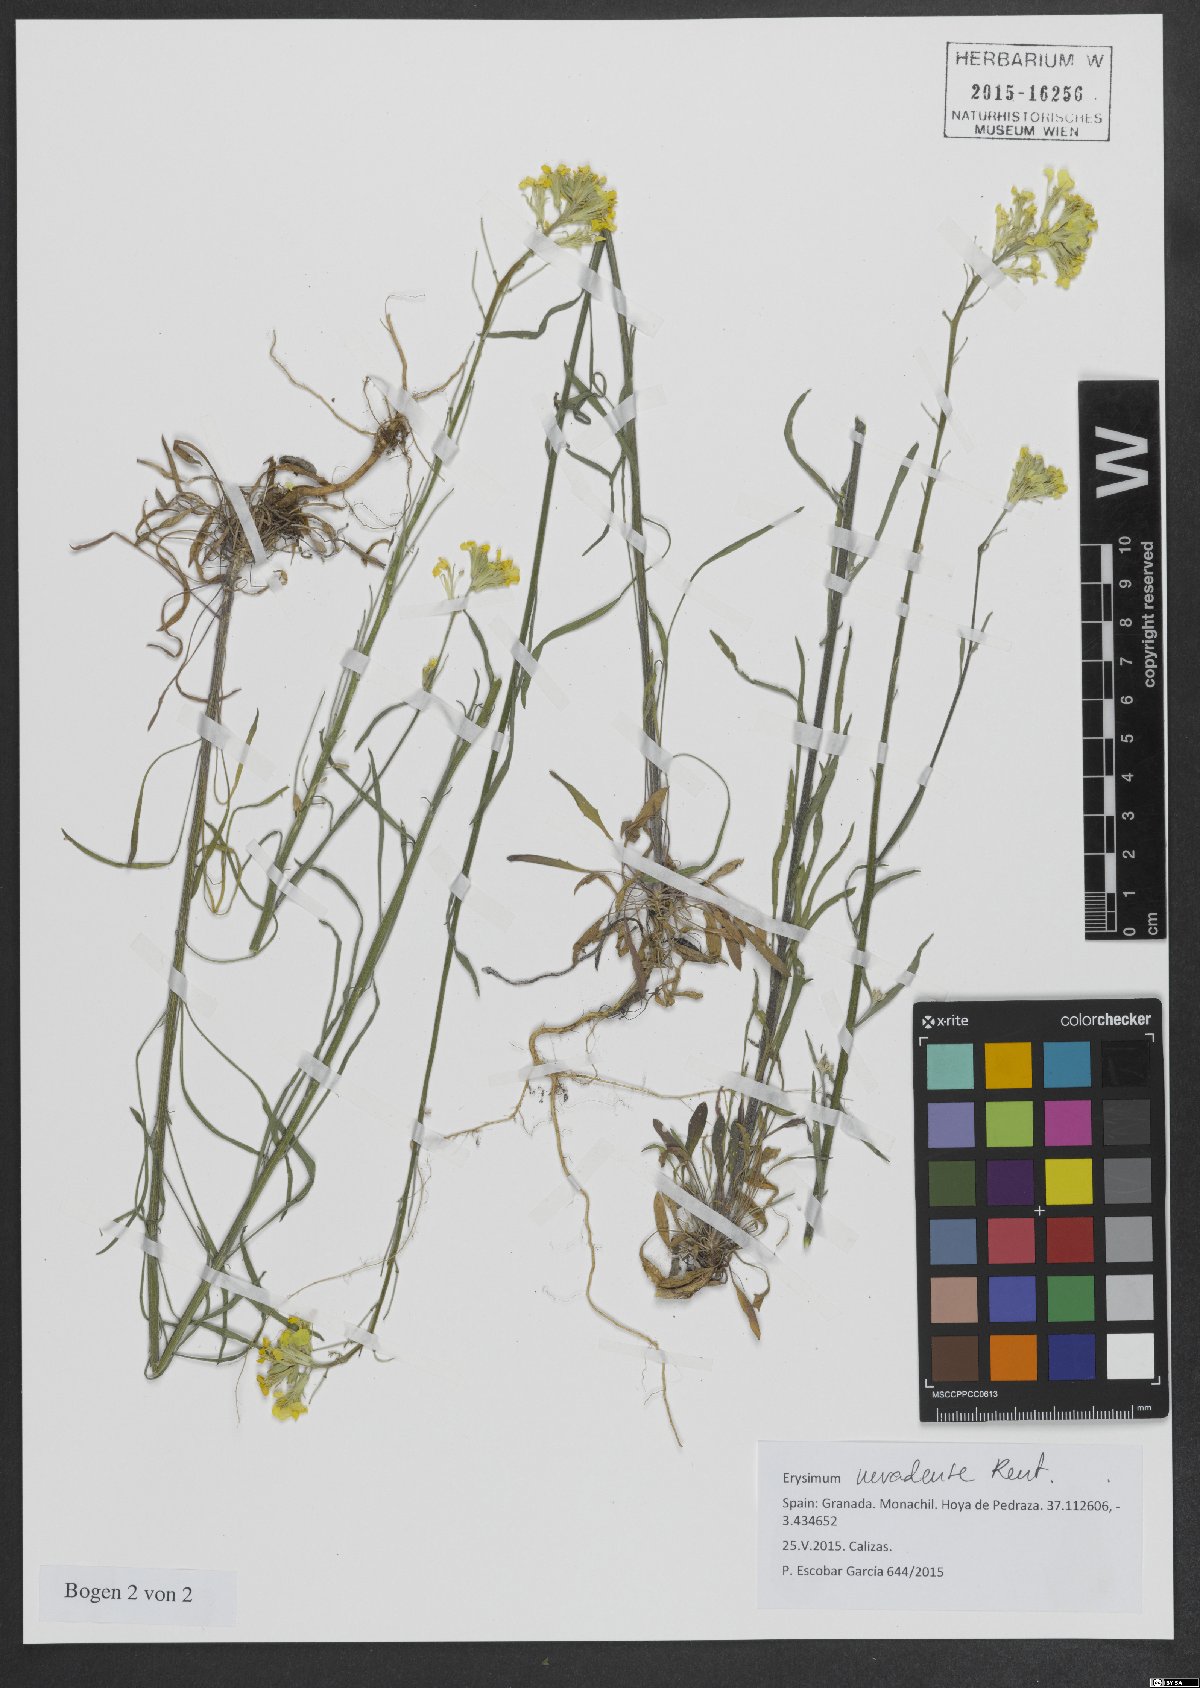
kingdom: Plantae
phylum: Tracheophyta
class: Magnoliopsida
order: Brassicales
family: Brassicaceae
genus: Erysimum
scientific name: Erysimum nevadense
